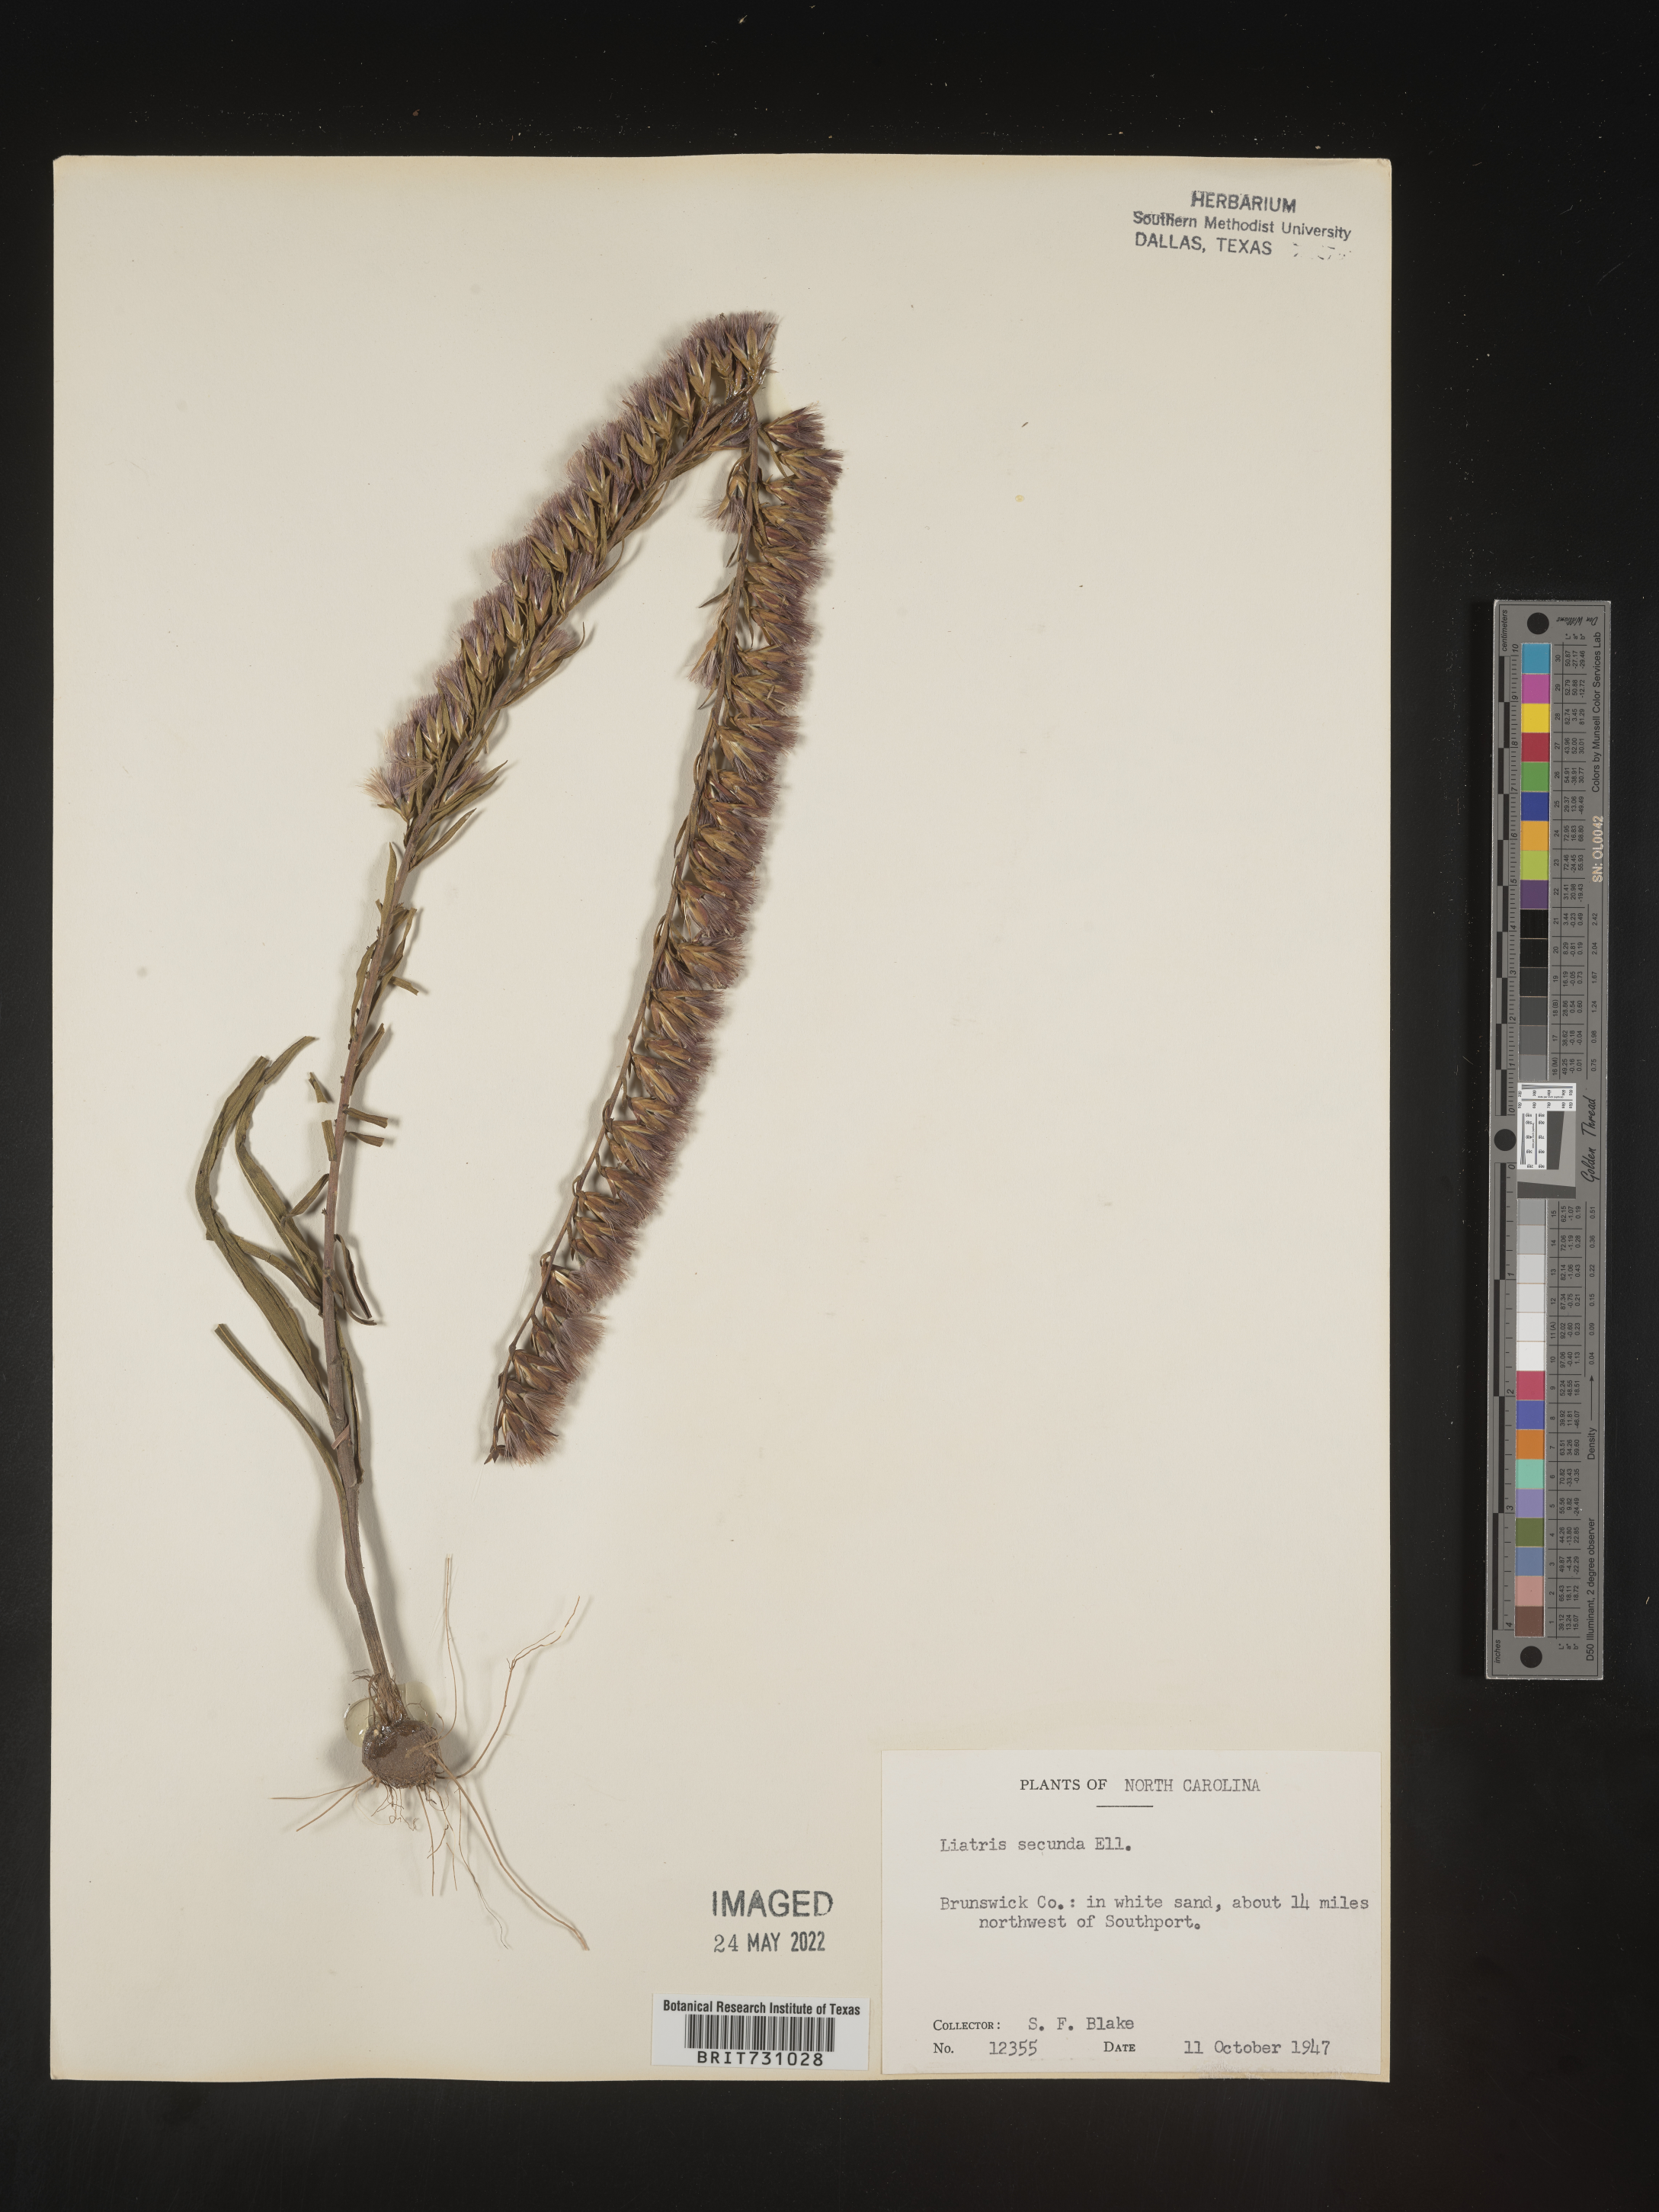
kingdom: Plantae
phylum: Tracheophyta
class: Magnoliopsida
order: Asterales
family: Asteraceae
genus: Liatris
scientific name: Liatris pauciflora
